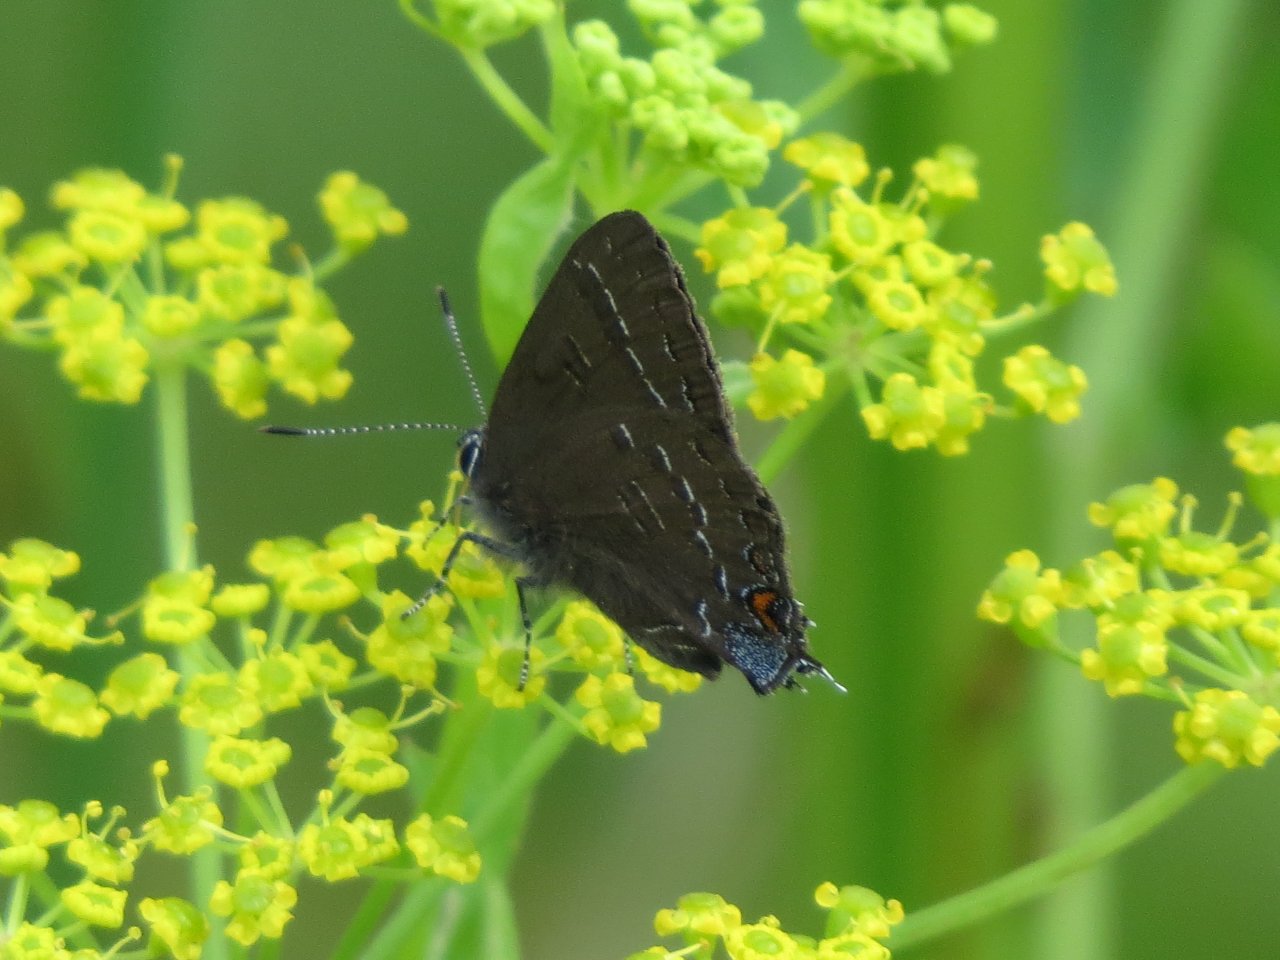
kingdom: Animalia
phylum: Arthropoda
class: Insecta
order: Lepidoptera
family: Lycaenidae
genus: Satyrium
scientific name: Satyrium calanus
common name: Banded Hairstreak
